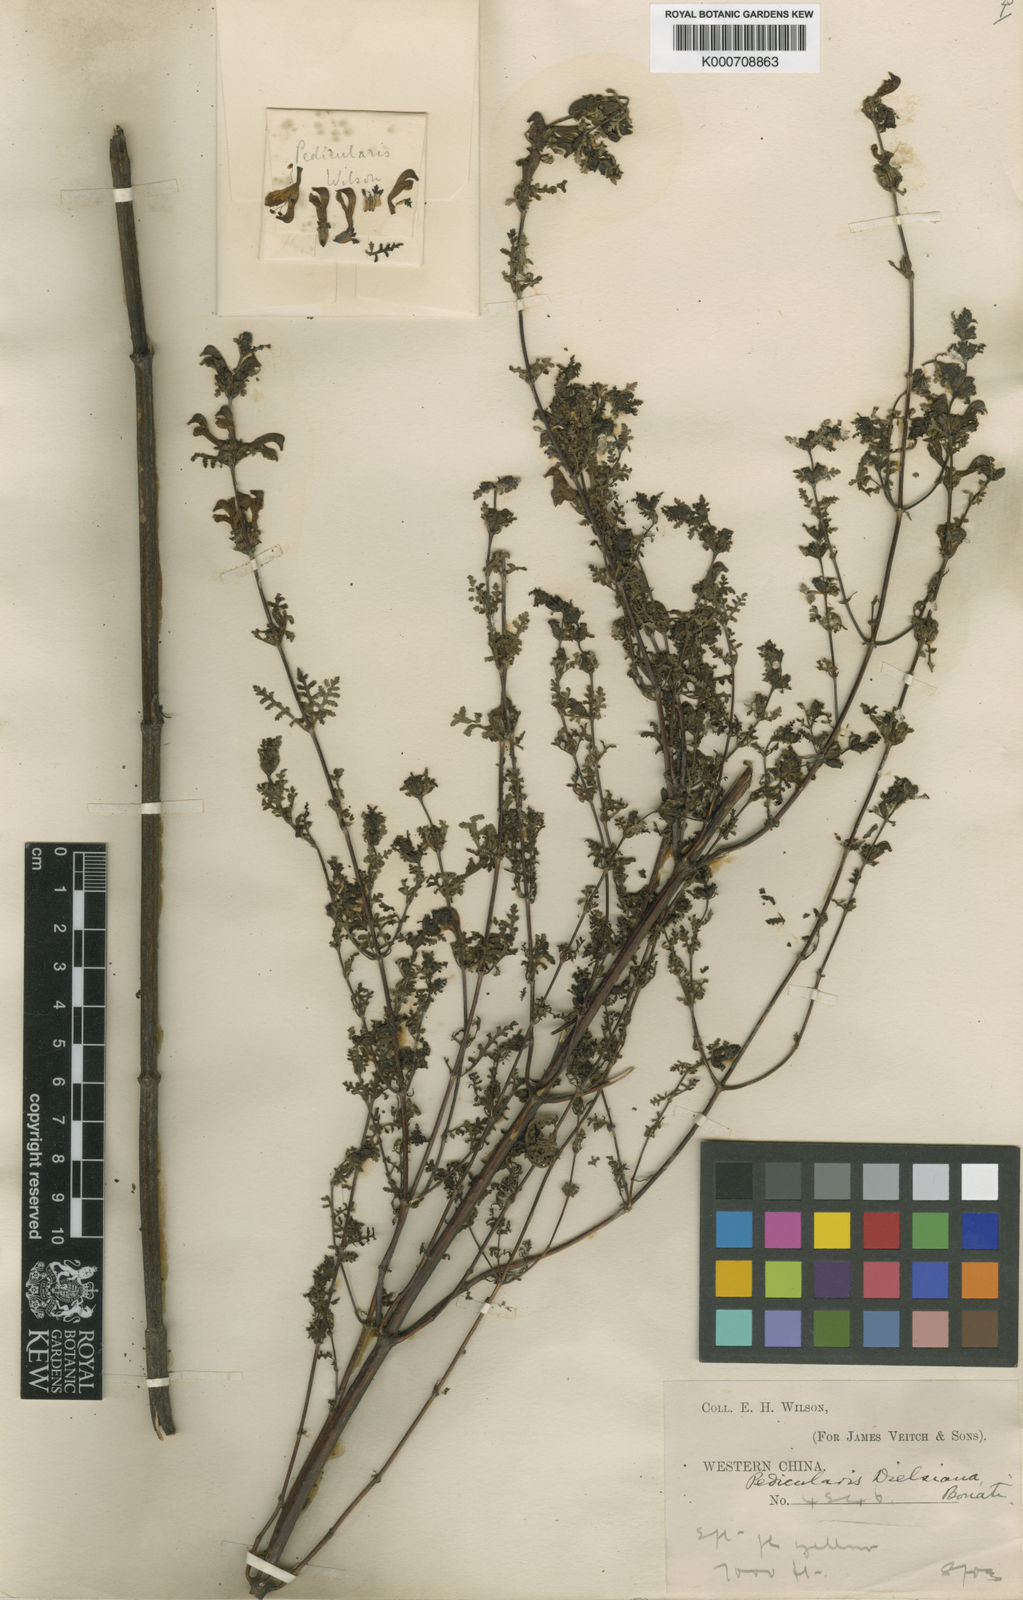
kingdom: Plantae
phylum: Tracheophyta
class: Magnoliopsida
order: Lamiales
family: Orobanchaceae
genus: Pedicularis
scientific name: Pedicularis dielsiana
